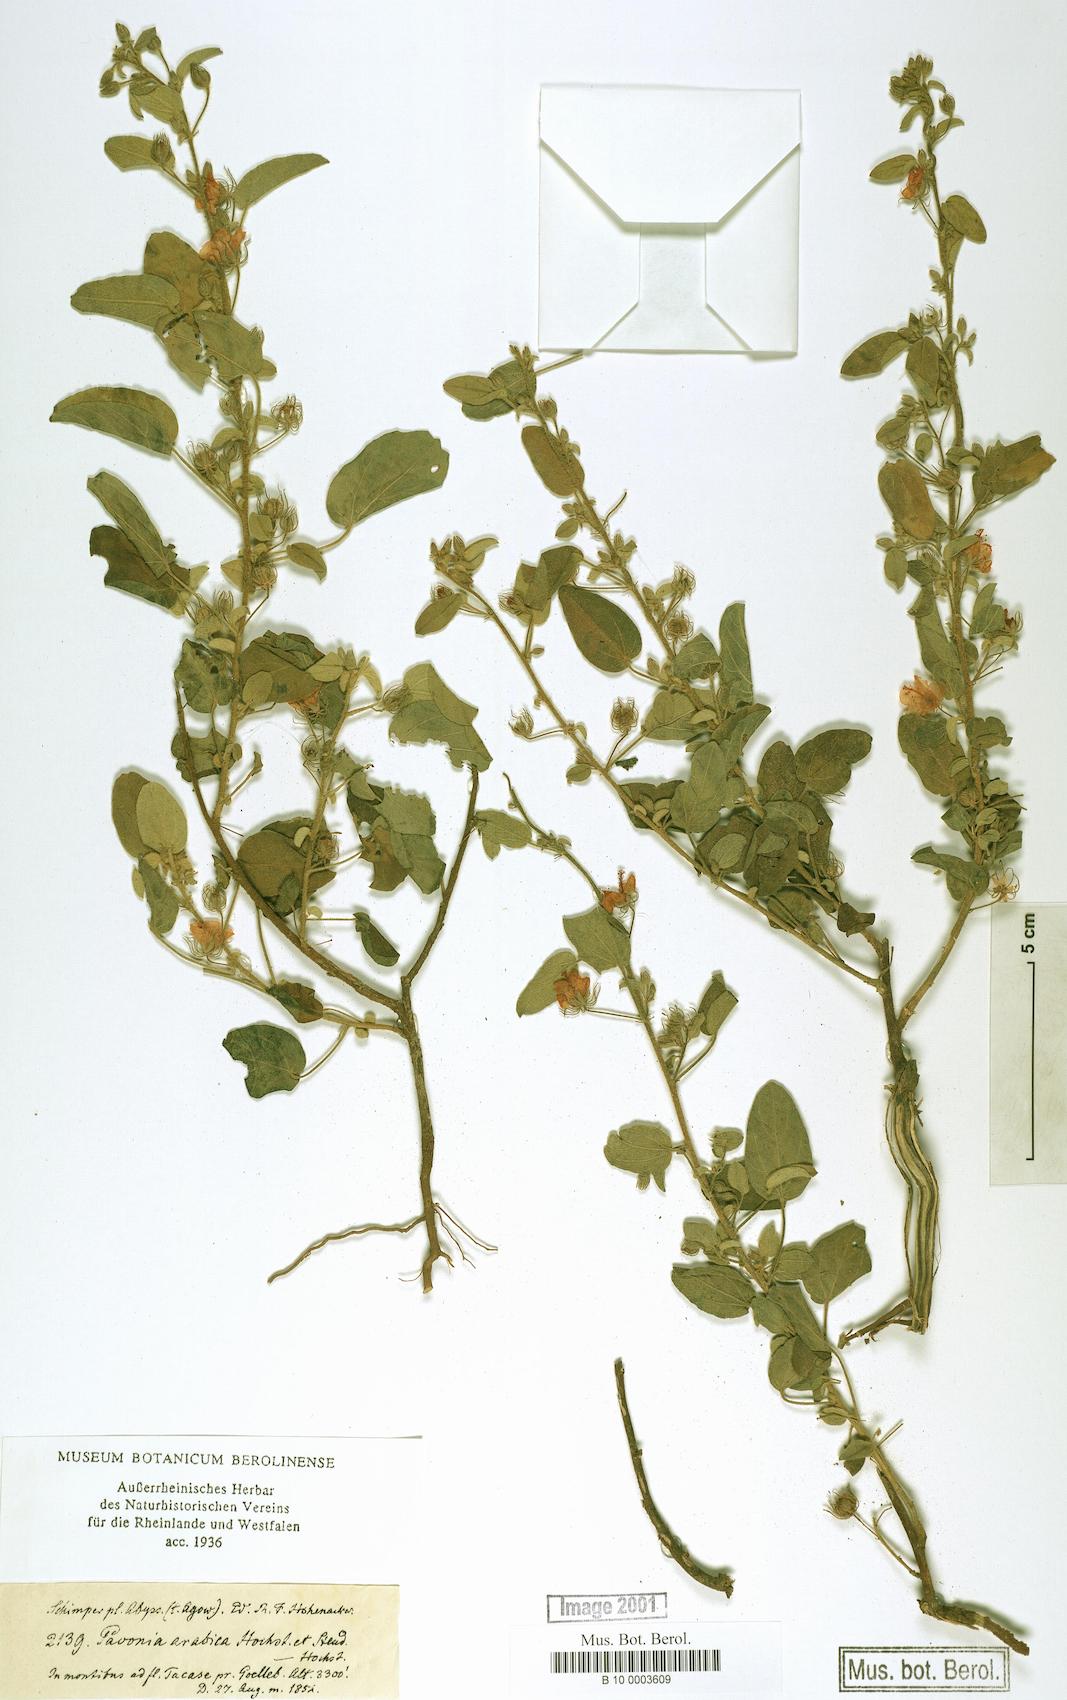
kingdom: Plantae
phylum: Tracheophyta
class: Magnoliopsida
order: Malvales
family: Malvaceae
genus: Pavonia
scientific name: Pavonia arabica
